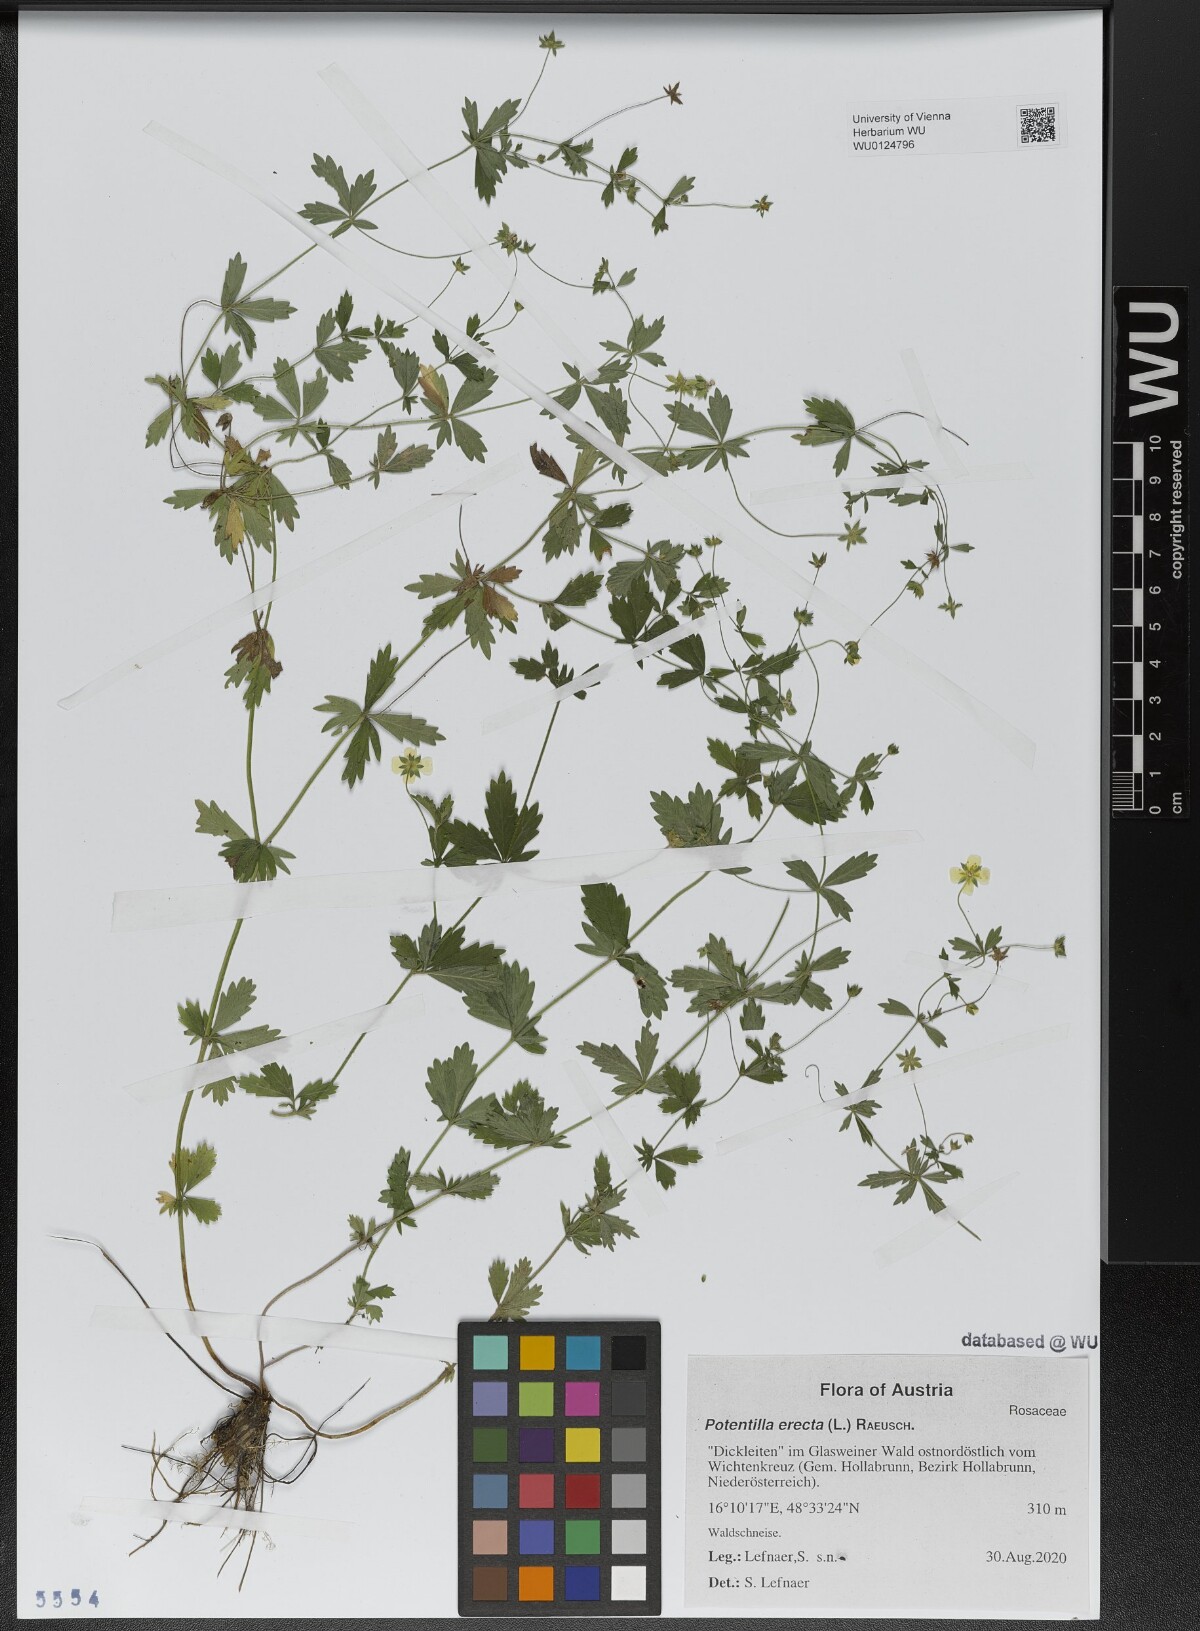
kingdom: Plantae
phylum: Tracheophyta
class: Magnoliopsida
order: Rosales
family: Rosaceae
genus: Potentilla
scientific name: Potentilla erecta
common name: Tormentil
